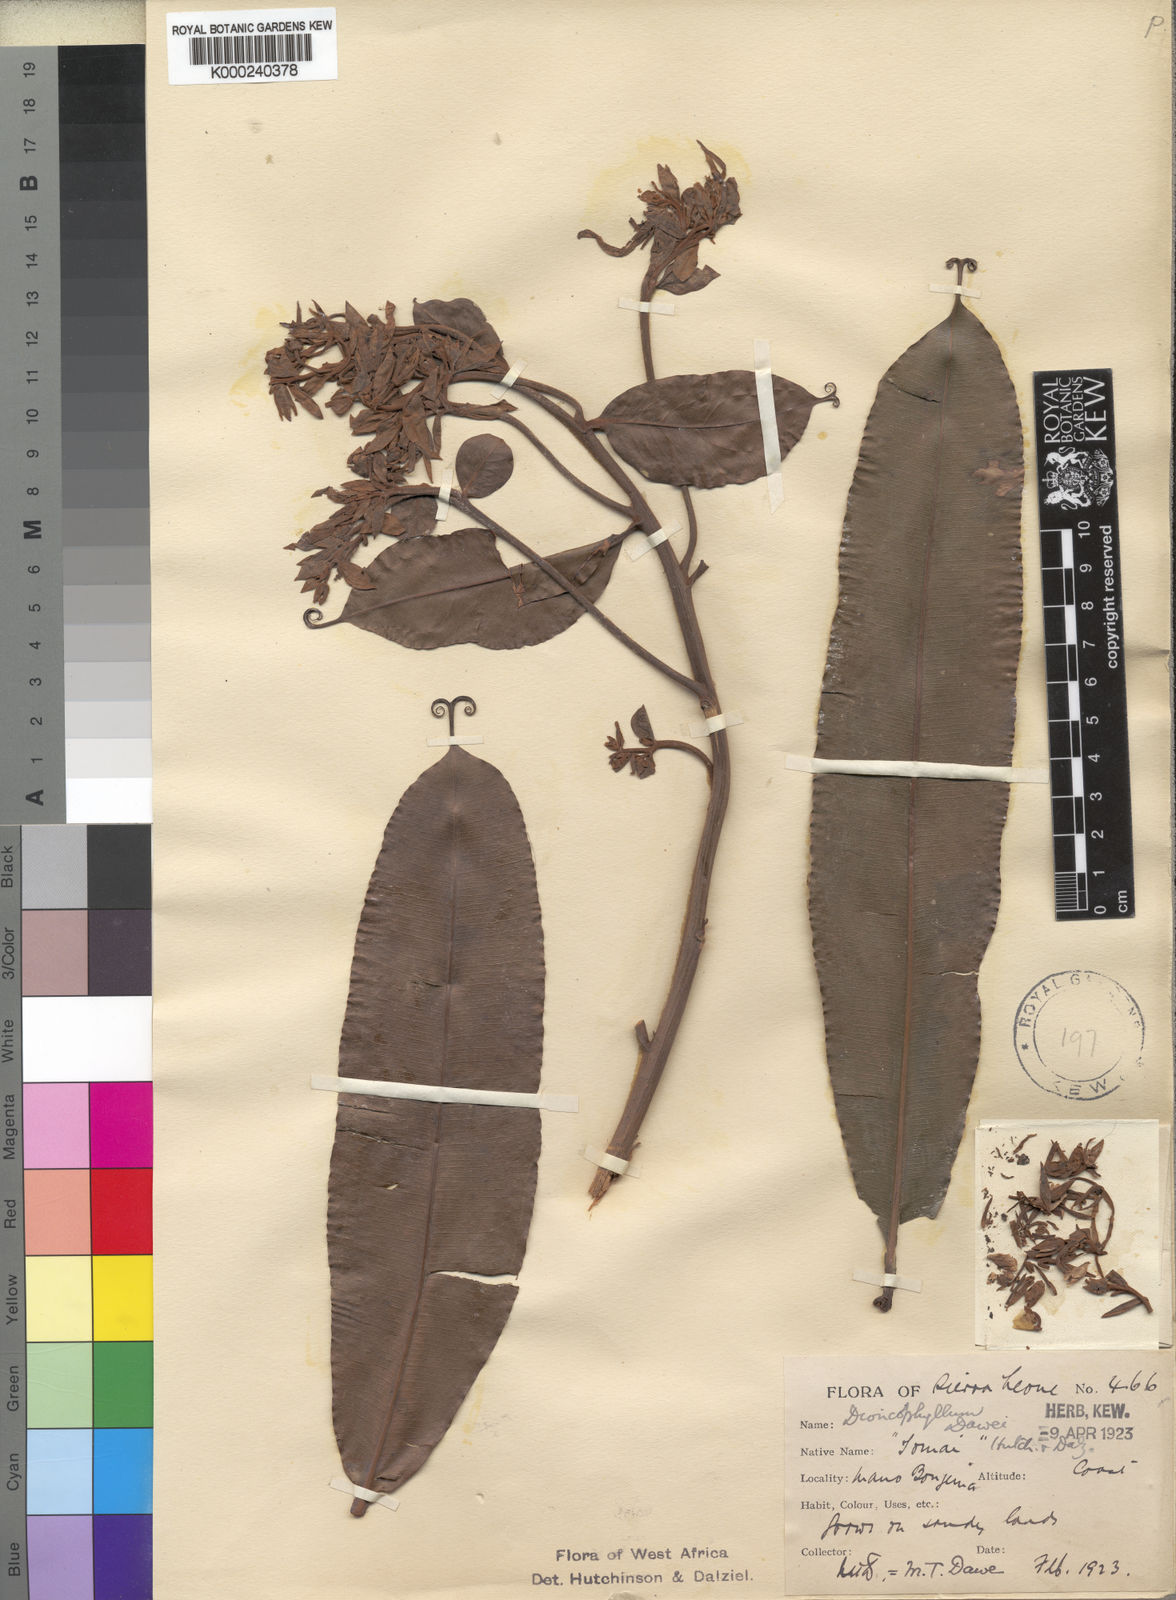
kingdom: Plantae
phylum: Tracheophyta
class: Magnoliopsida
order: Caryophyllales
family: Dioncophyllaceae
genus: Triphyophyllum
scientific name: Triphyophyllum
